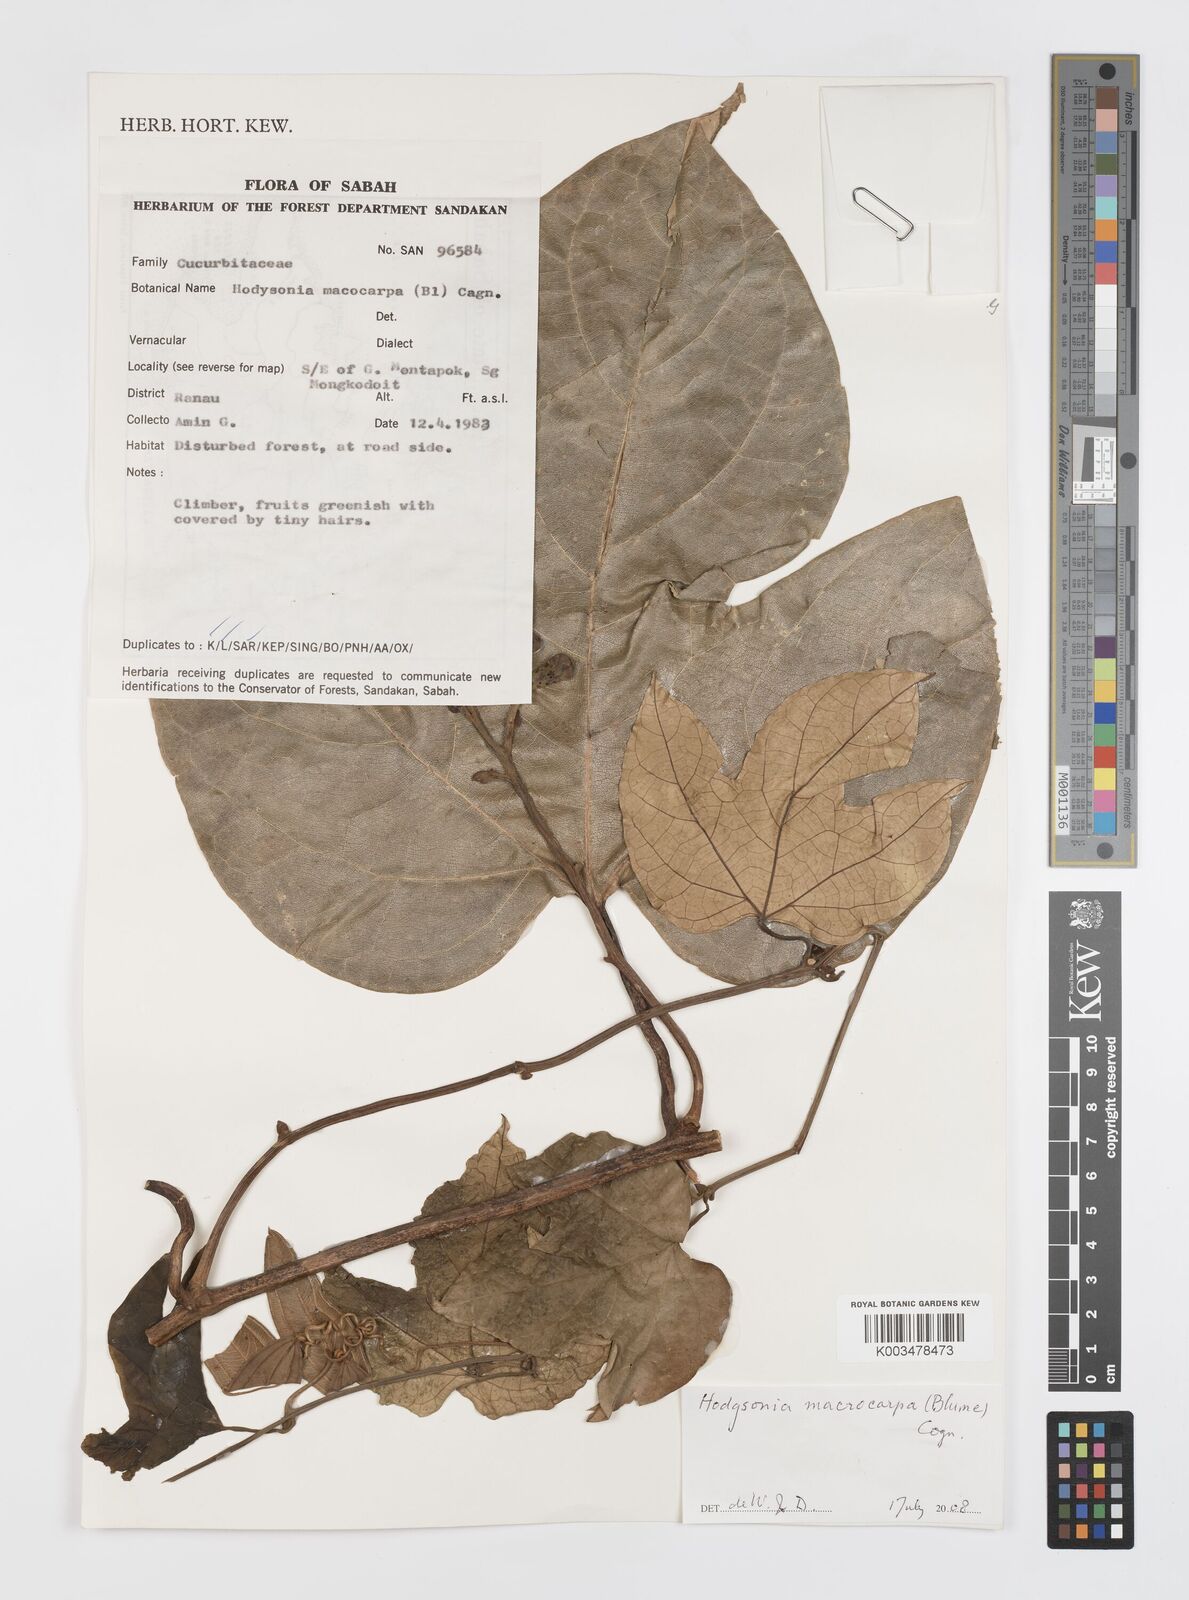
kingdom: Plantae
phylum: Tracheophyta
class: Magnoliopsida
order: Cucurbitales
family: Cucurbitaceae
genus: Hodgsonia
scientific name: Hodgsonia macrocarpa
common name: Chinese lardfruit
